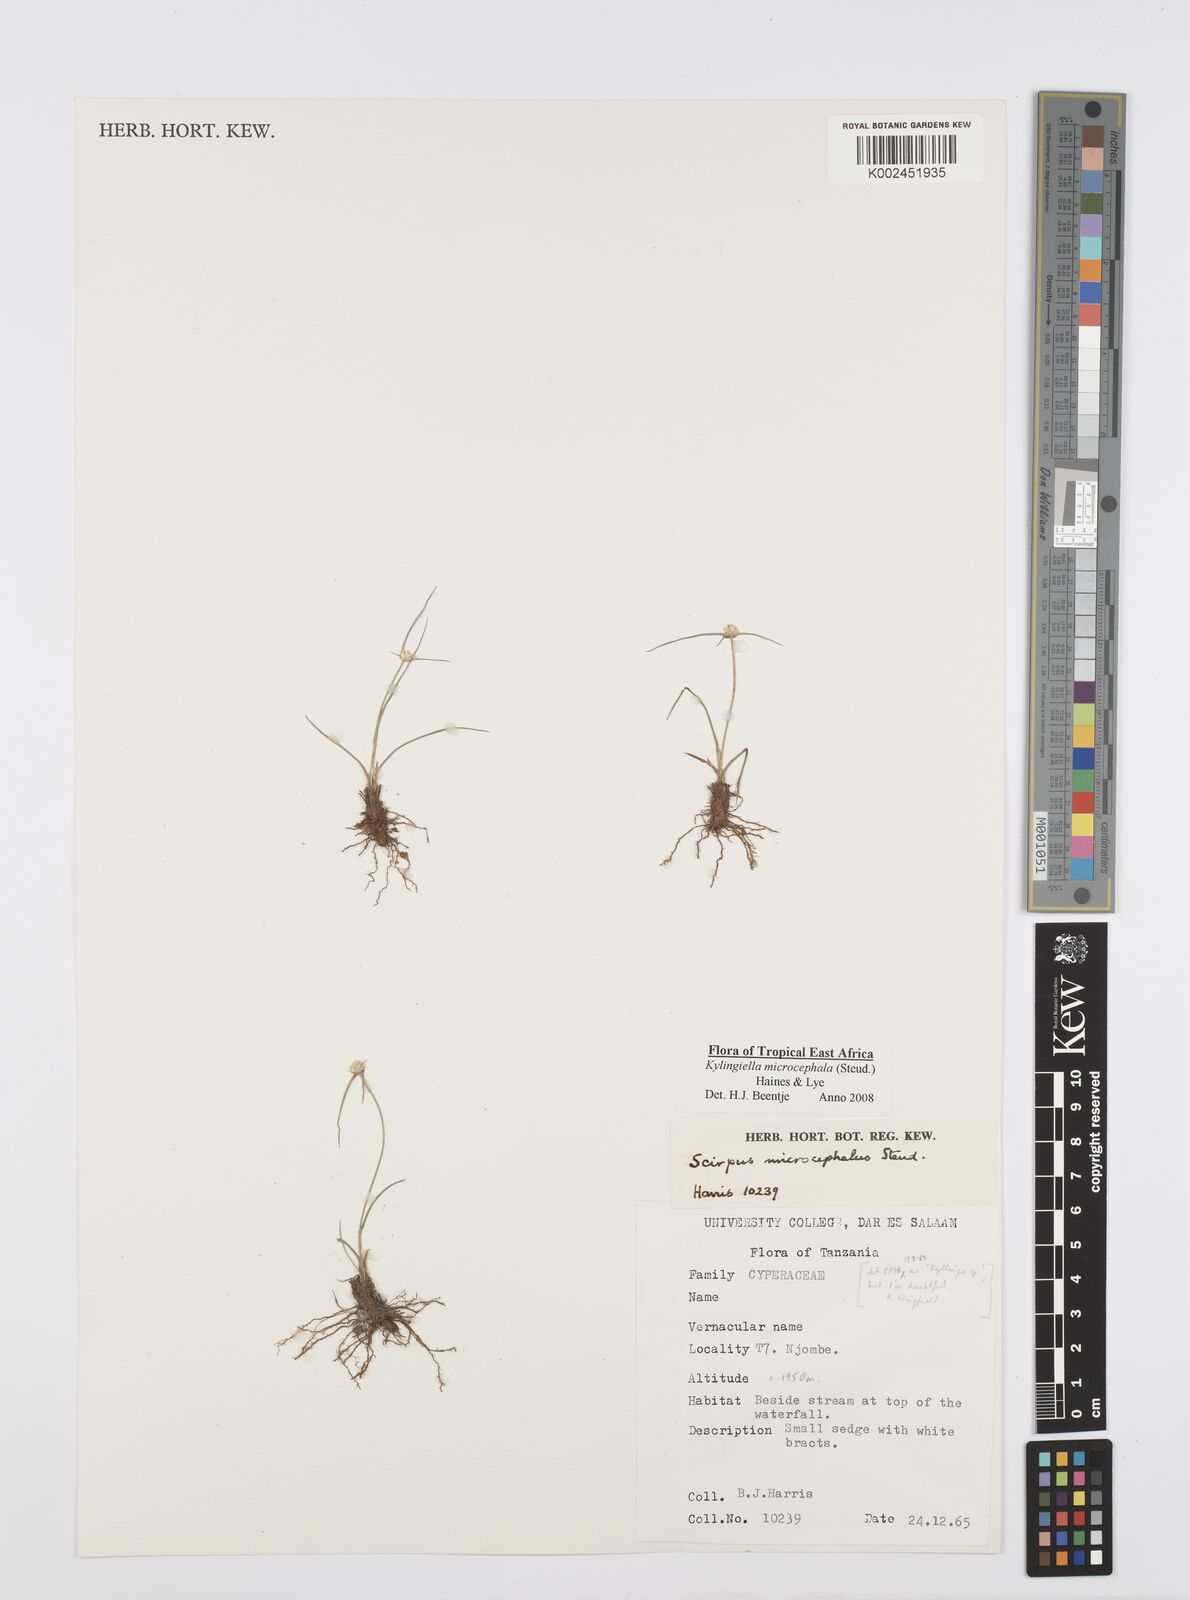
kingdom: Plantae
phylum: Tracheophyta
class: Liliopsida
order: Poales
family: Cyperaceae
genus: Cyperus
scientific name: Cyperus microcephalus
